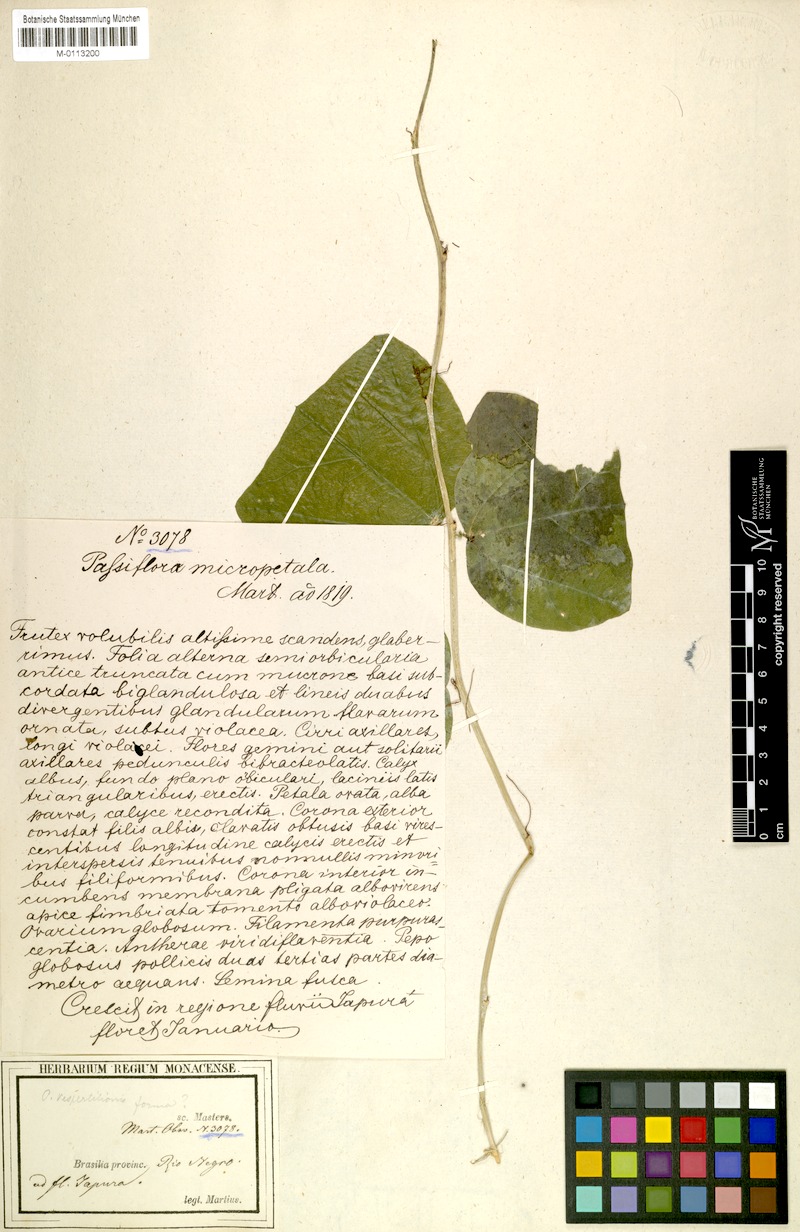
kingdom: Plantae
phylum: Tracheophyta
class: Magnoliopsida
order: Malpighiales
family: Passifloraceae
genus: Passiflora
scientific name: Passiflora micropetala
